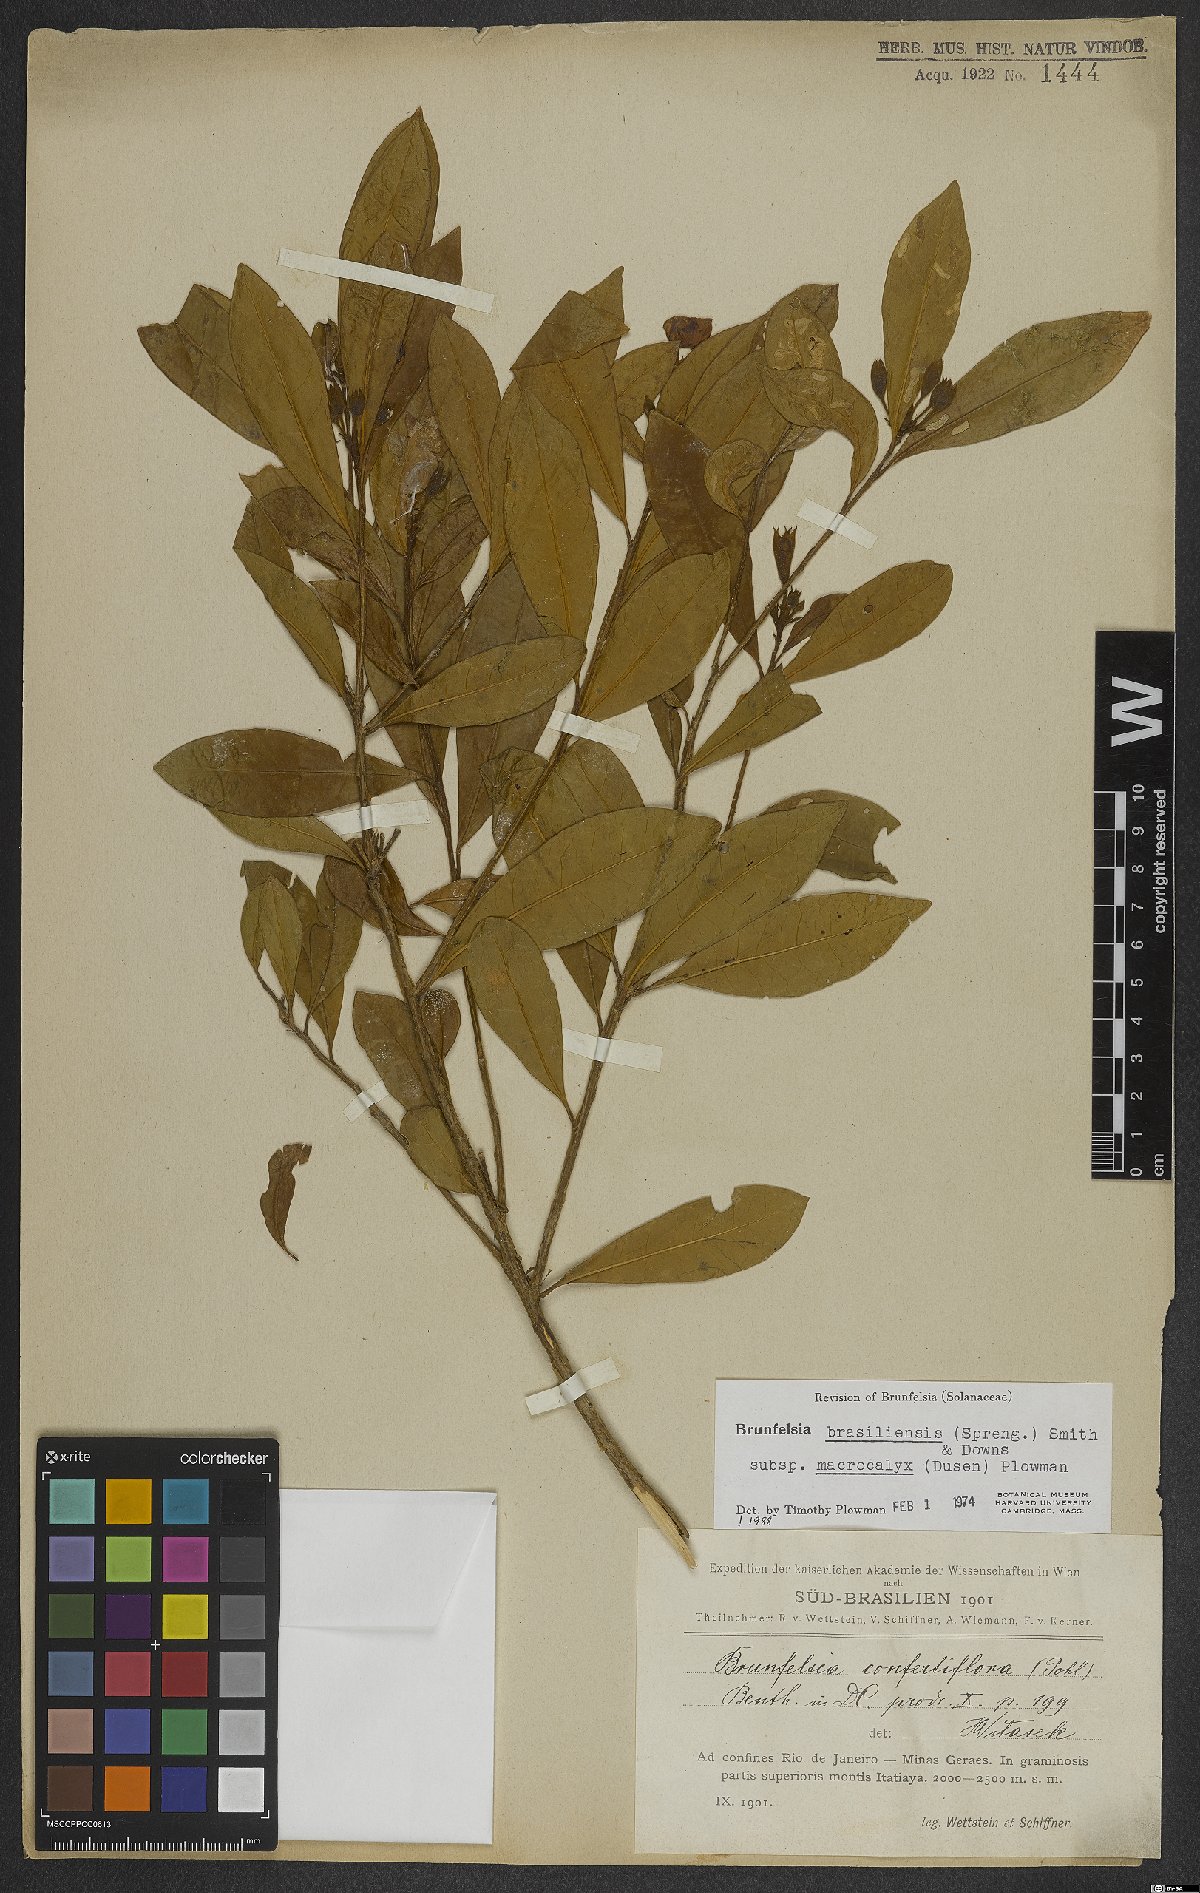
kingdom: Plantae
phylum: Tracheophyta
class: Magnoliopsida
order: Solanales
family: Solanaceae
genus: Brunfelsia
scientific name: Brunfelsia brasiliensis
